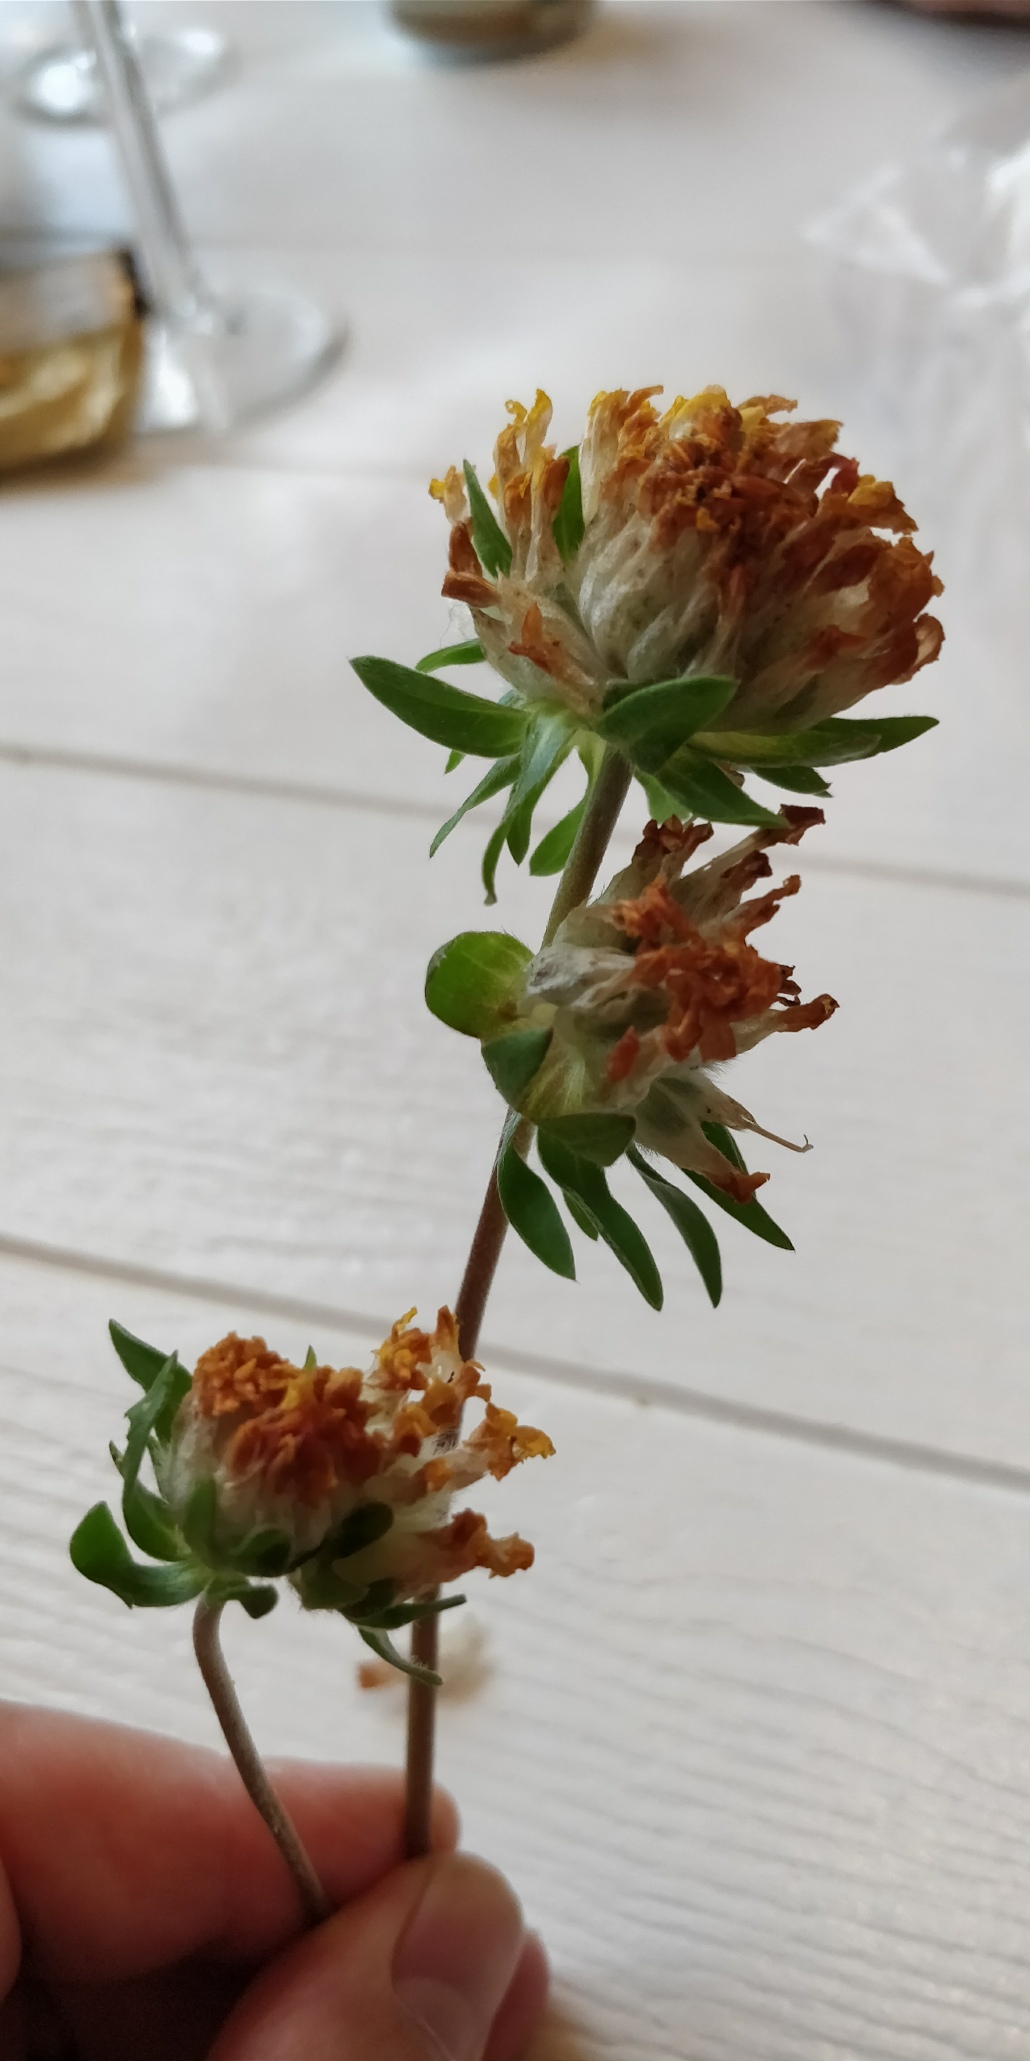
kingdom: Plantae
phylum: Tracheophyta
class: Magnoliopsida
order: Fabales
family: Fabaceae
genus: Anthyllis
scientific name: Anthyllis vulneraria
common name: Rundbælg
